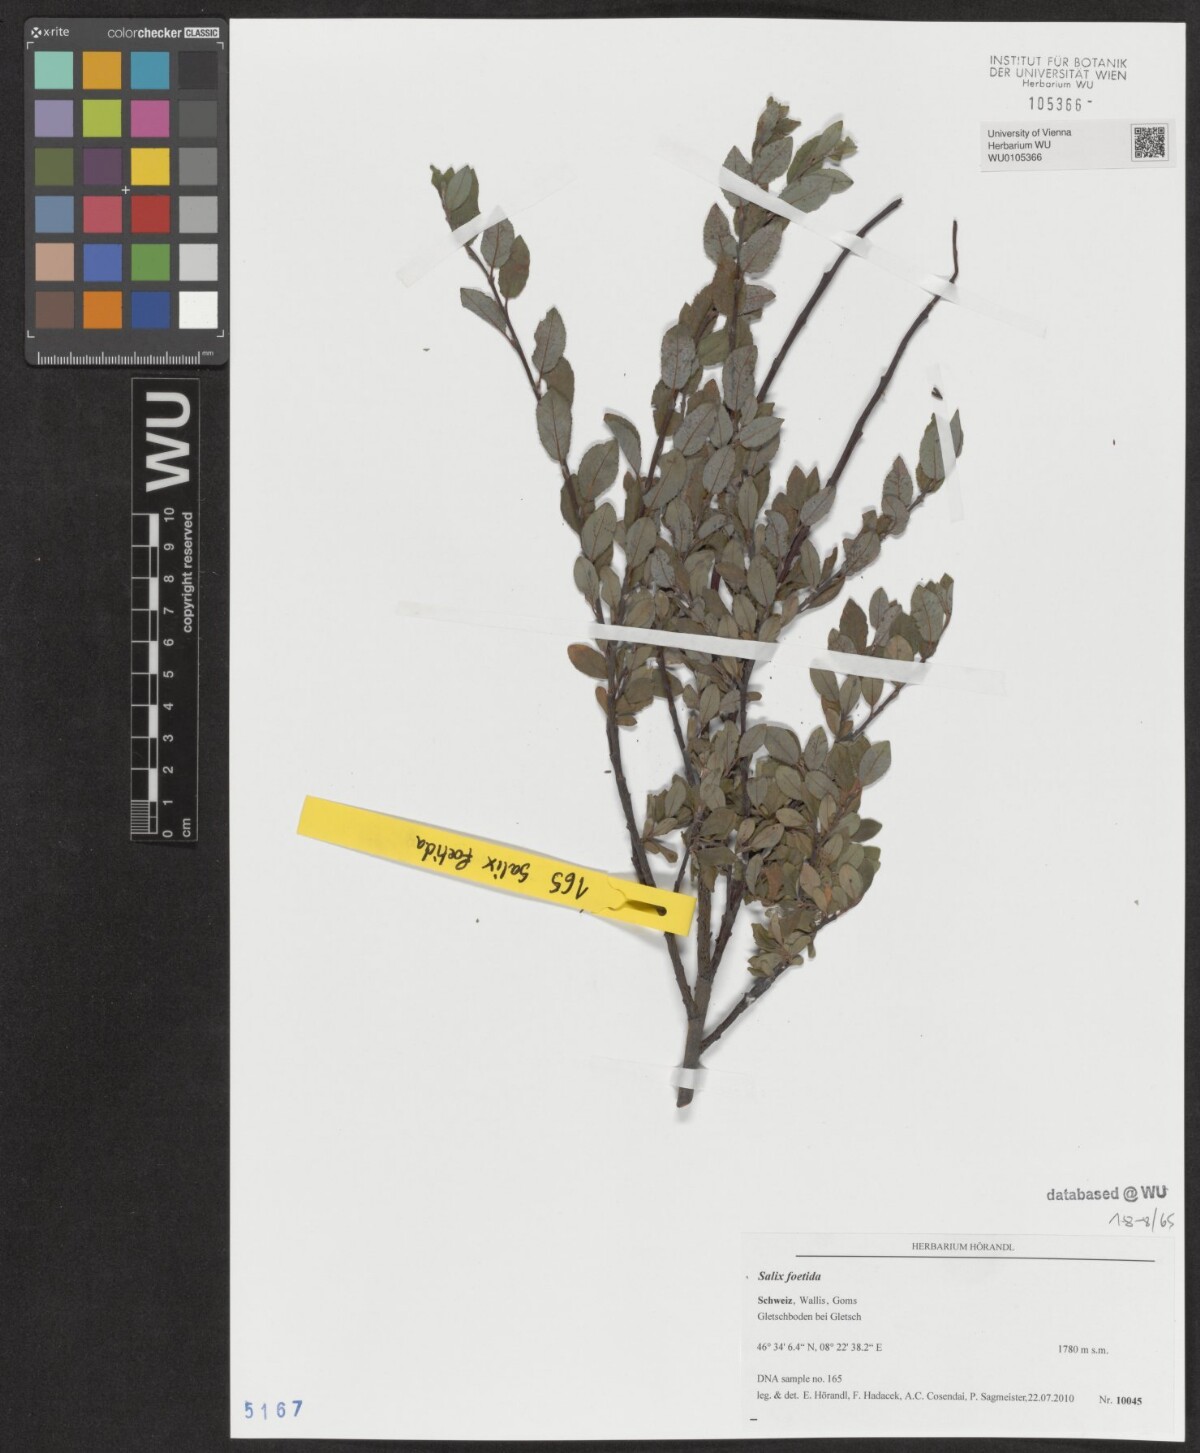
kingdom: Plantae
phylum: Tracheophyta
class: Magnoliopsida
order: Malpighiales
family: Salicaceae
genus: Salix
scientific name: Salix foetida
